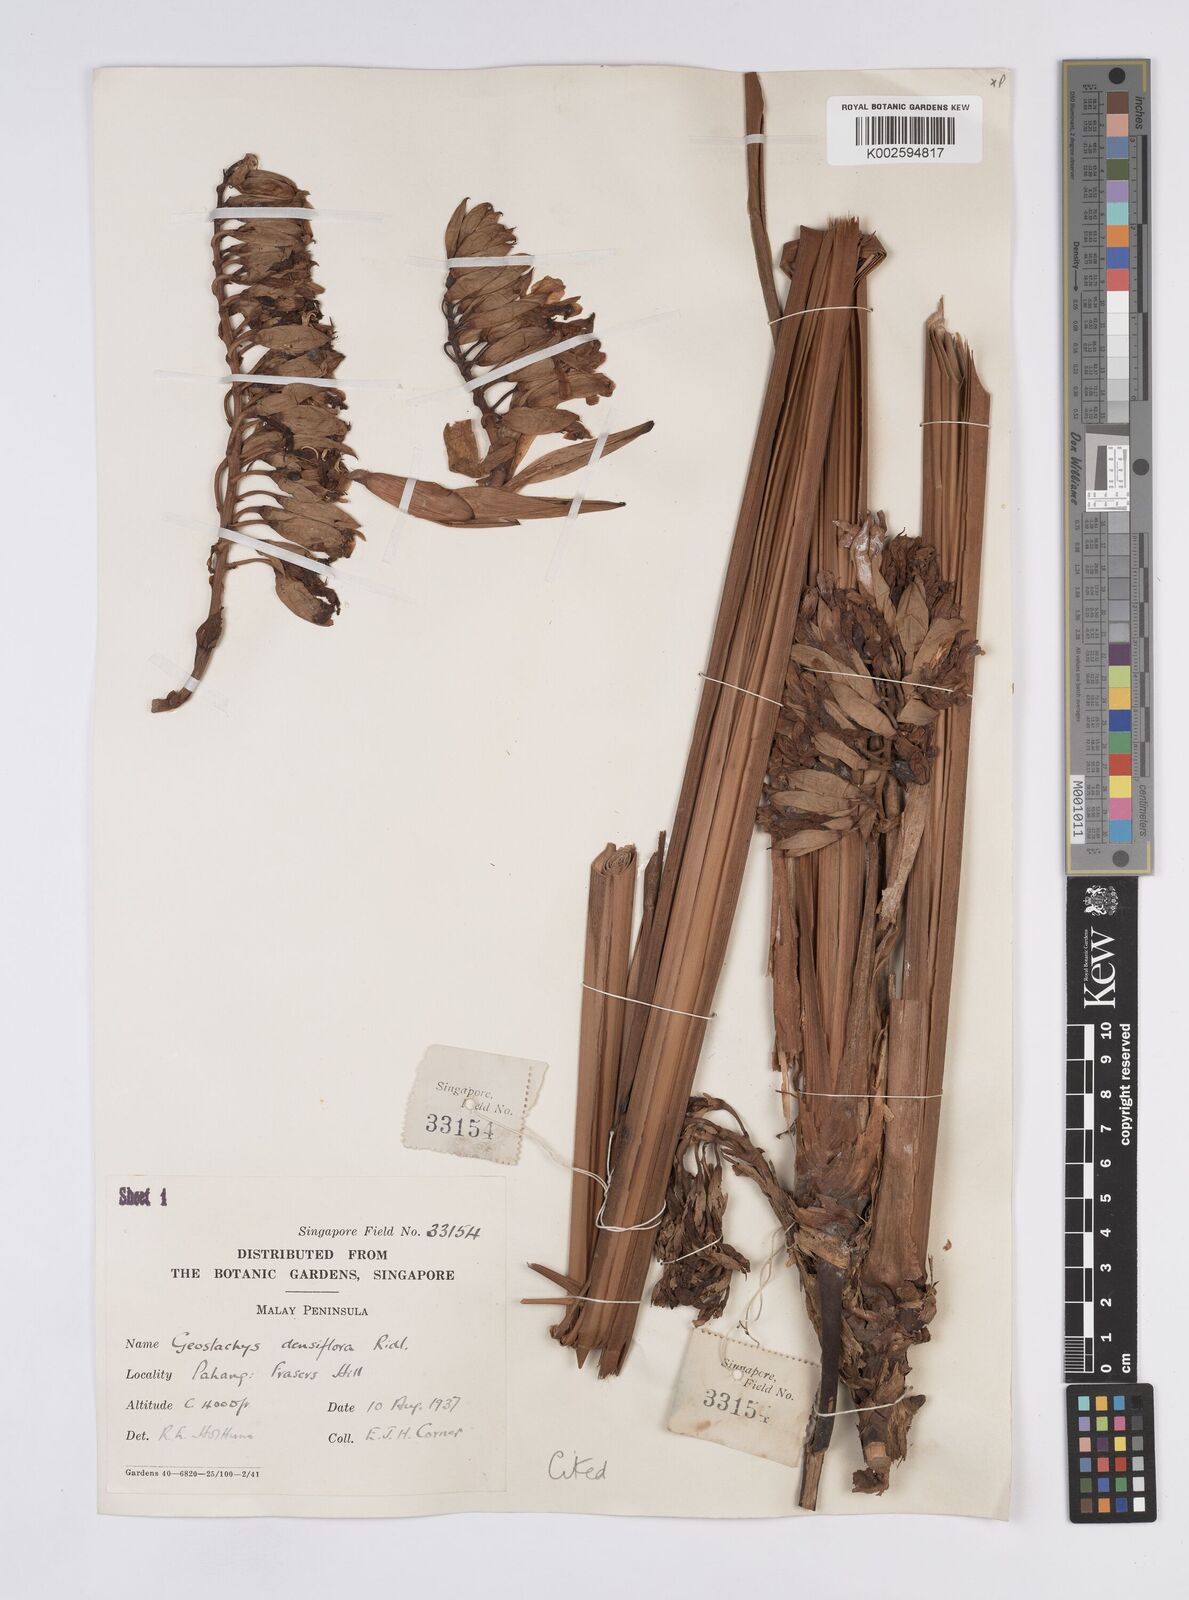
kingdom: Plantae
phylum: Tracheophyta
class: Liliopsida
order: Zingiberales
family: Zingiberaceae
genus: Geostachys
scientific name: Geostachys densiflora
